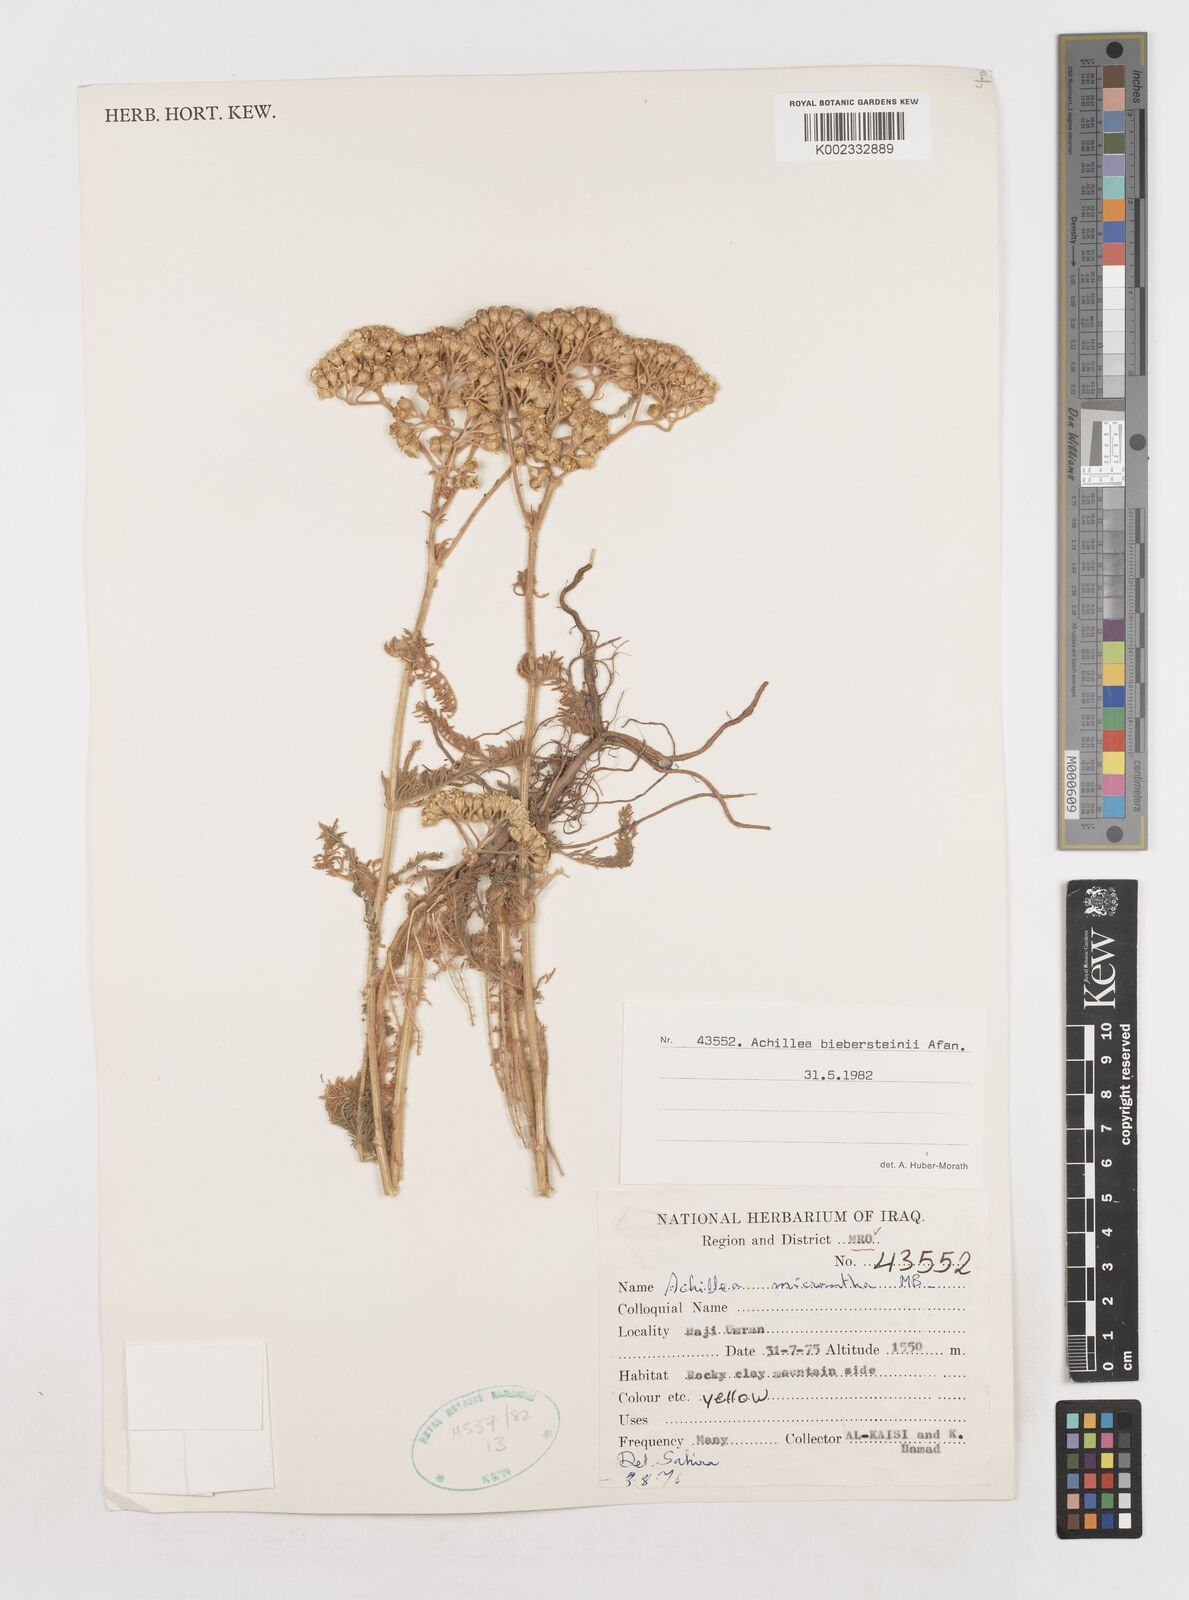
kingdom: Plantae
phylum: Tracheophyta
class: Magnoliopsida
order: Asterales
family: Asteraceae
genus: Achillea
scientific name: Achillea arabica
